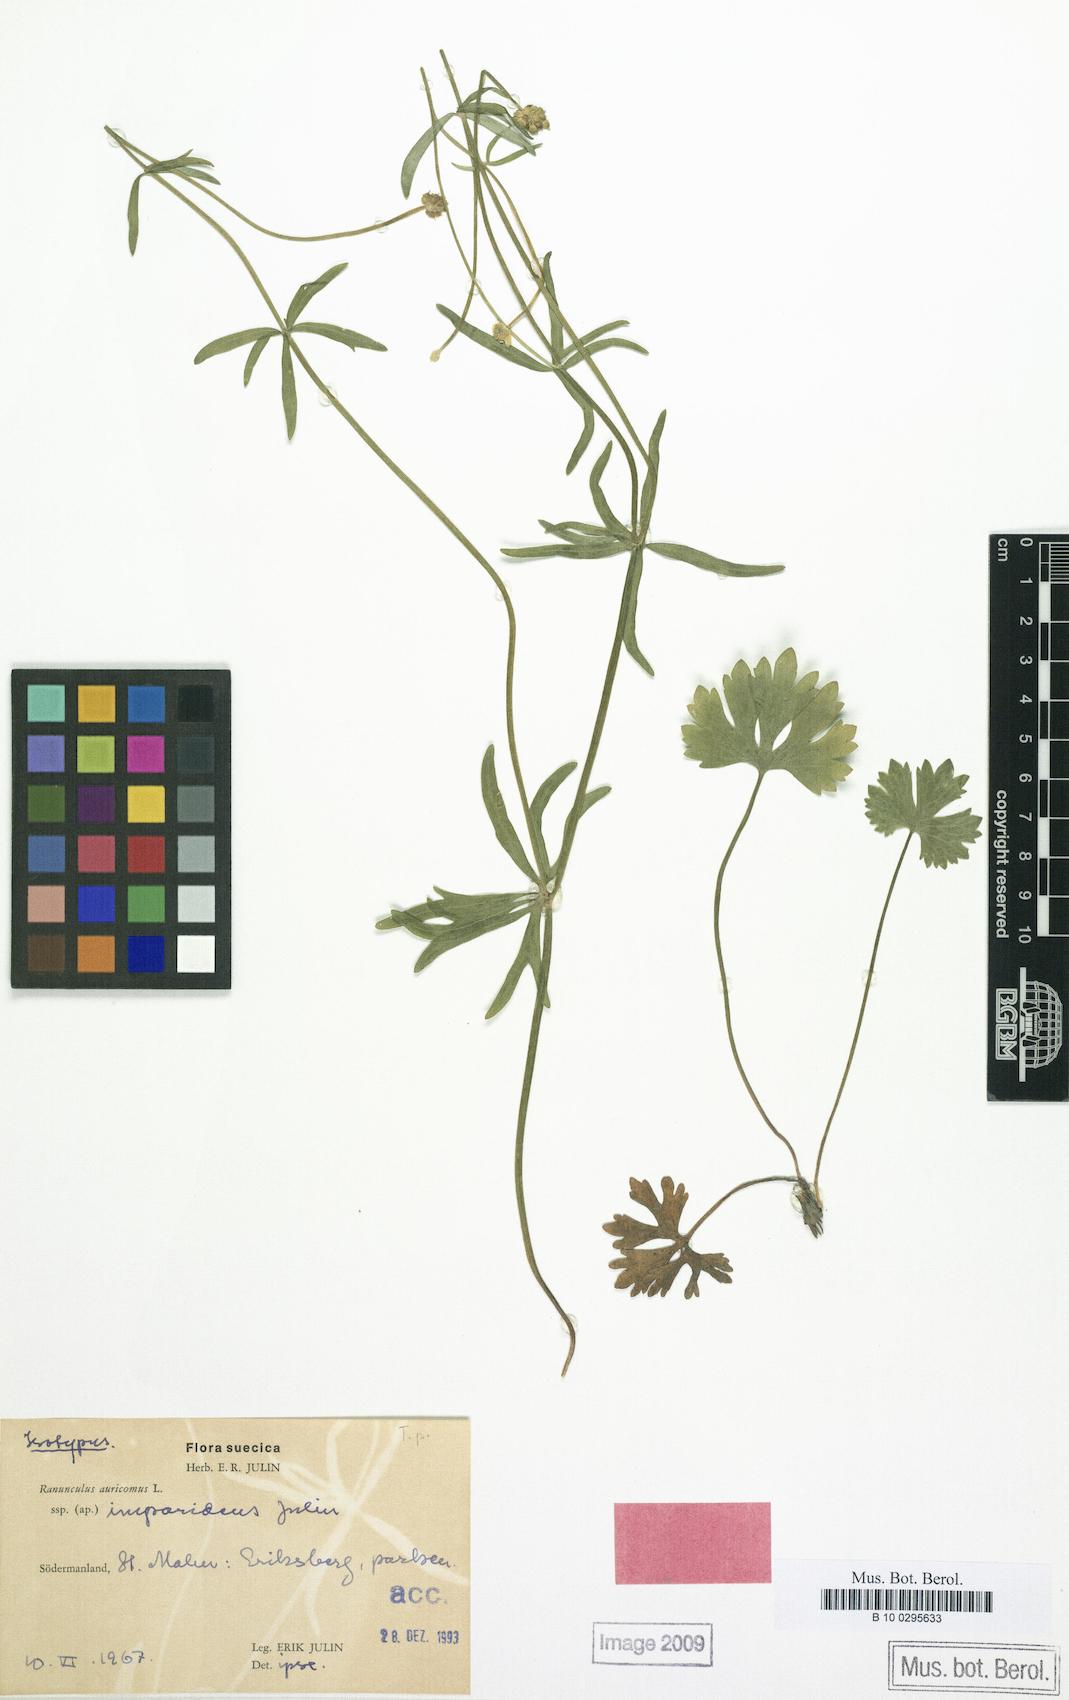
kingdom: Plantae
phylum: Tracheophyta
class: Magnoliopsida
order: Ranunculales
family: Ranunculaceae
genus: Ranunculus
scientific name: Ranunculus imparidens
